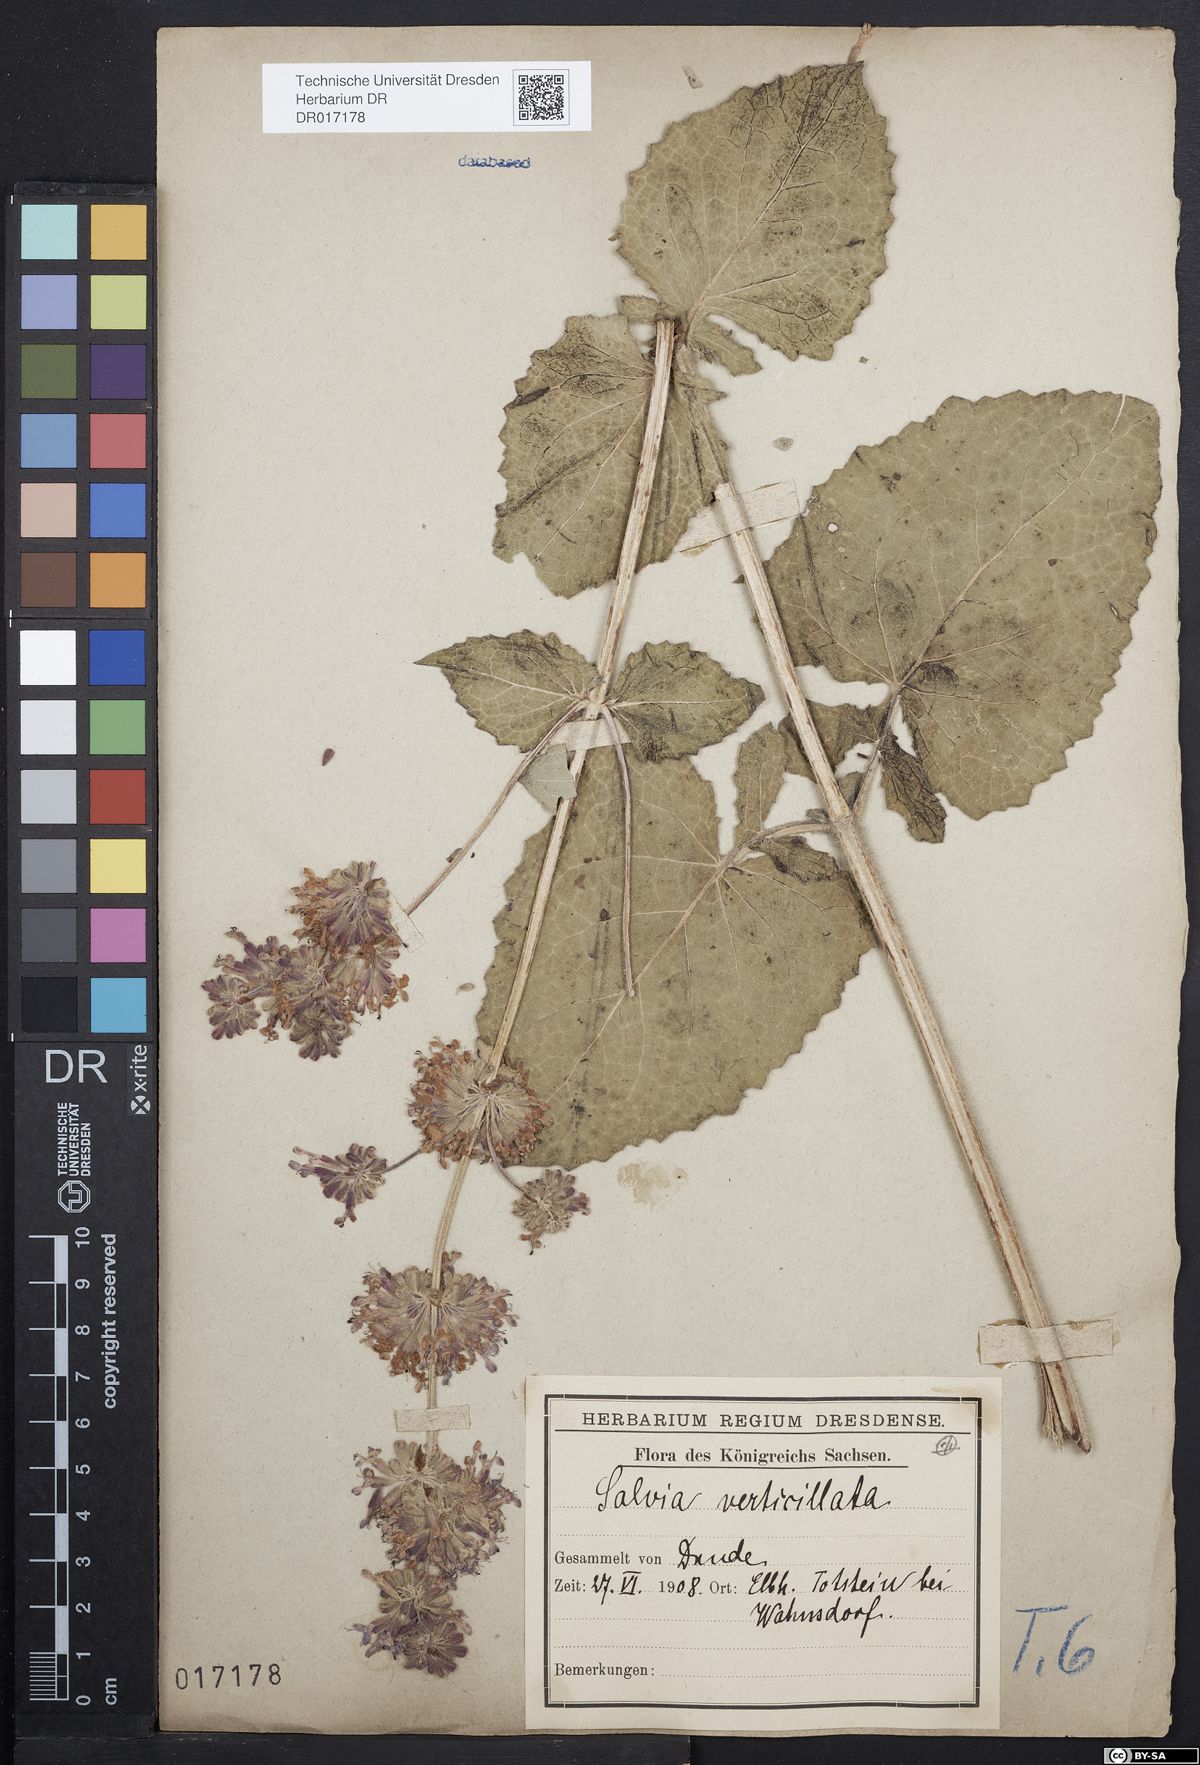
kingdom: Plantae
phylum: Tracheophyta
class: Magnoliopsida
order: Lamiales
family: Lamiaceae
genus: Salvia
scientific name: Salvia verticillata
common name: Whorled clary
